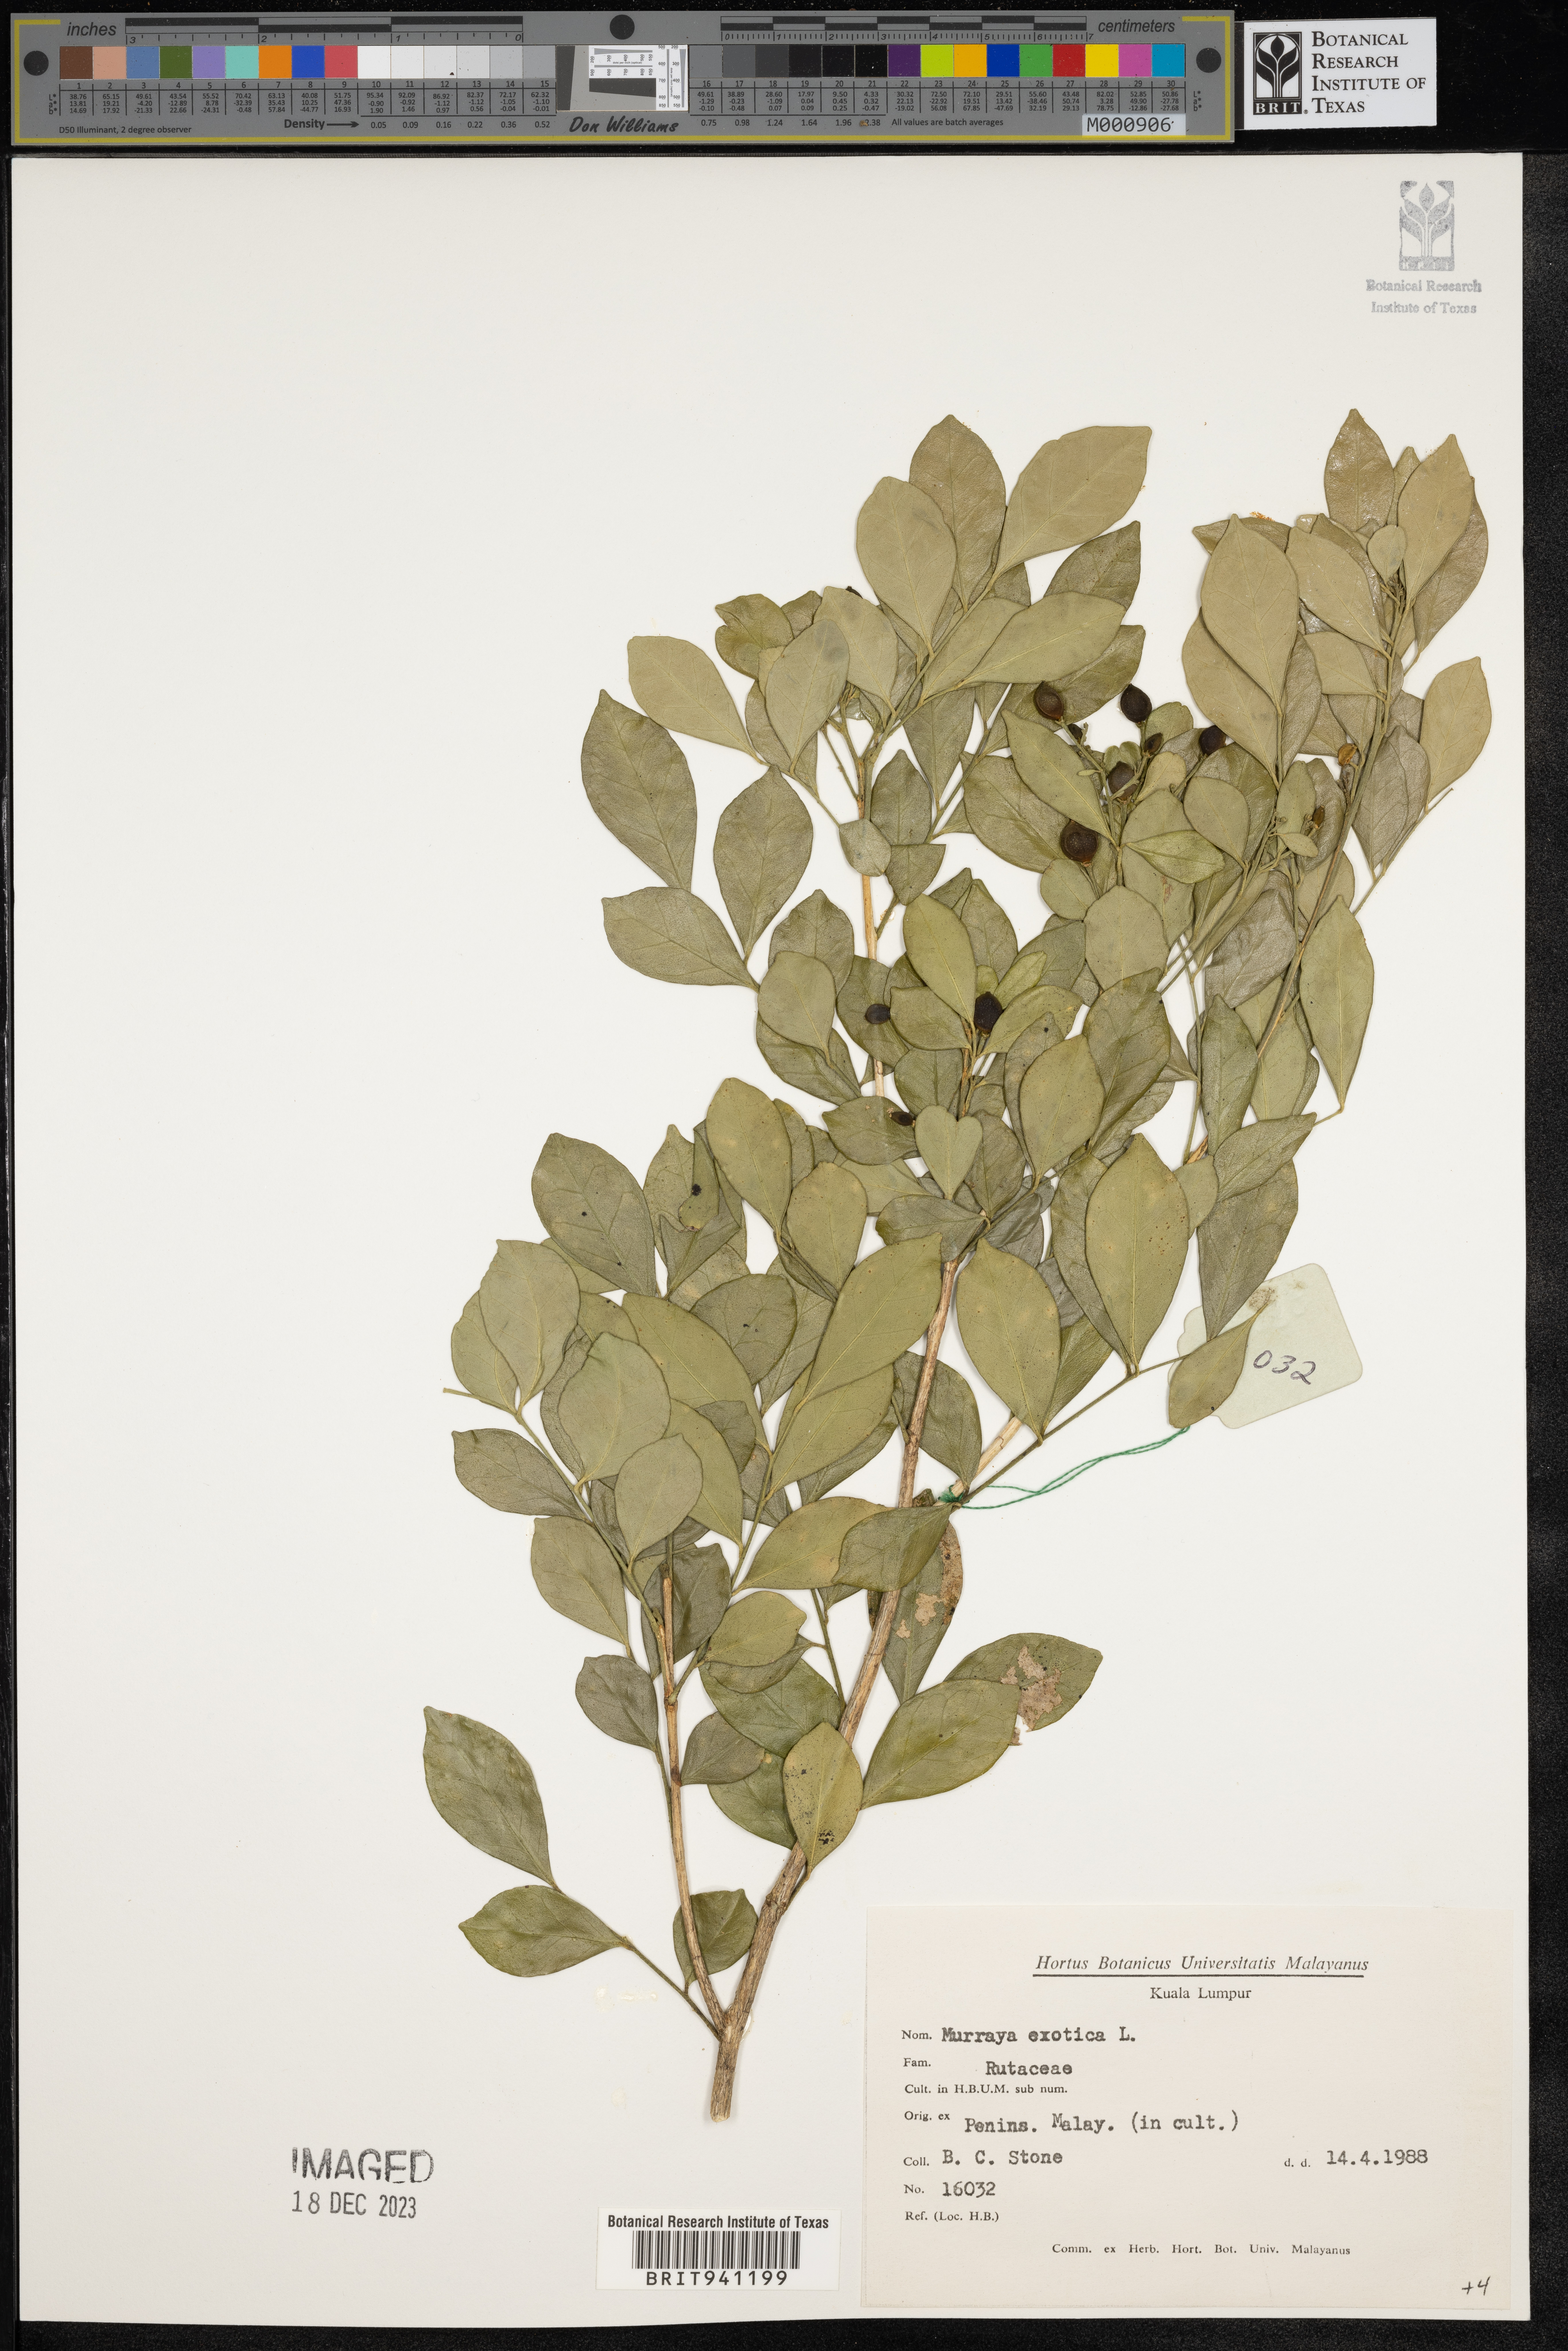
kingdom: Plantae
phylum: Tracheophyta
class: Magnoliopsida
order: Sapindales
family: Rutaceae
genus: Murraya
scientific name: Murraya
